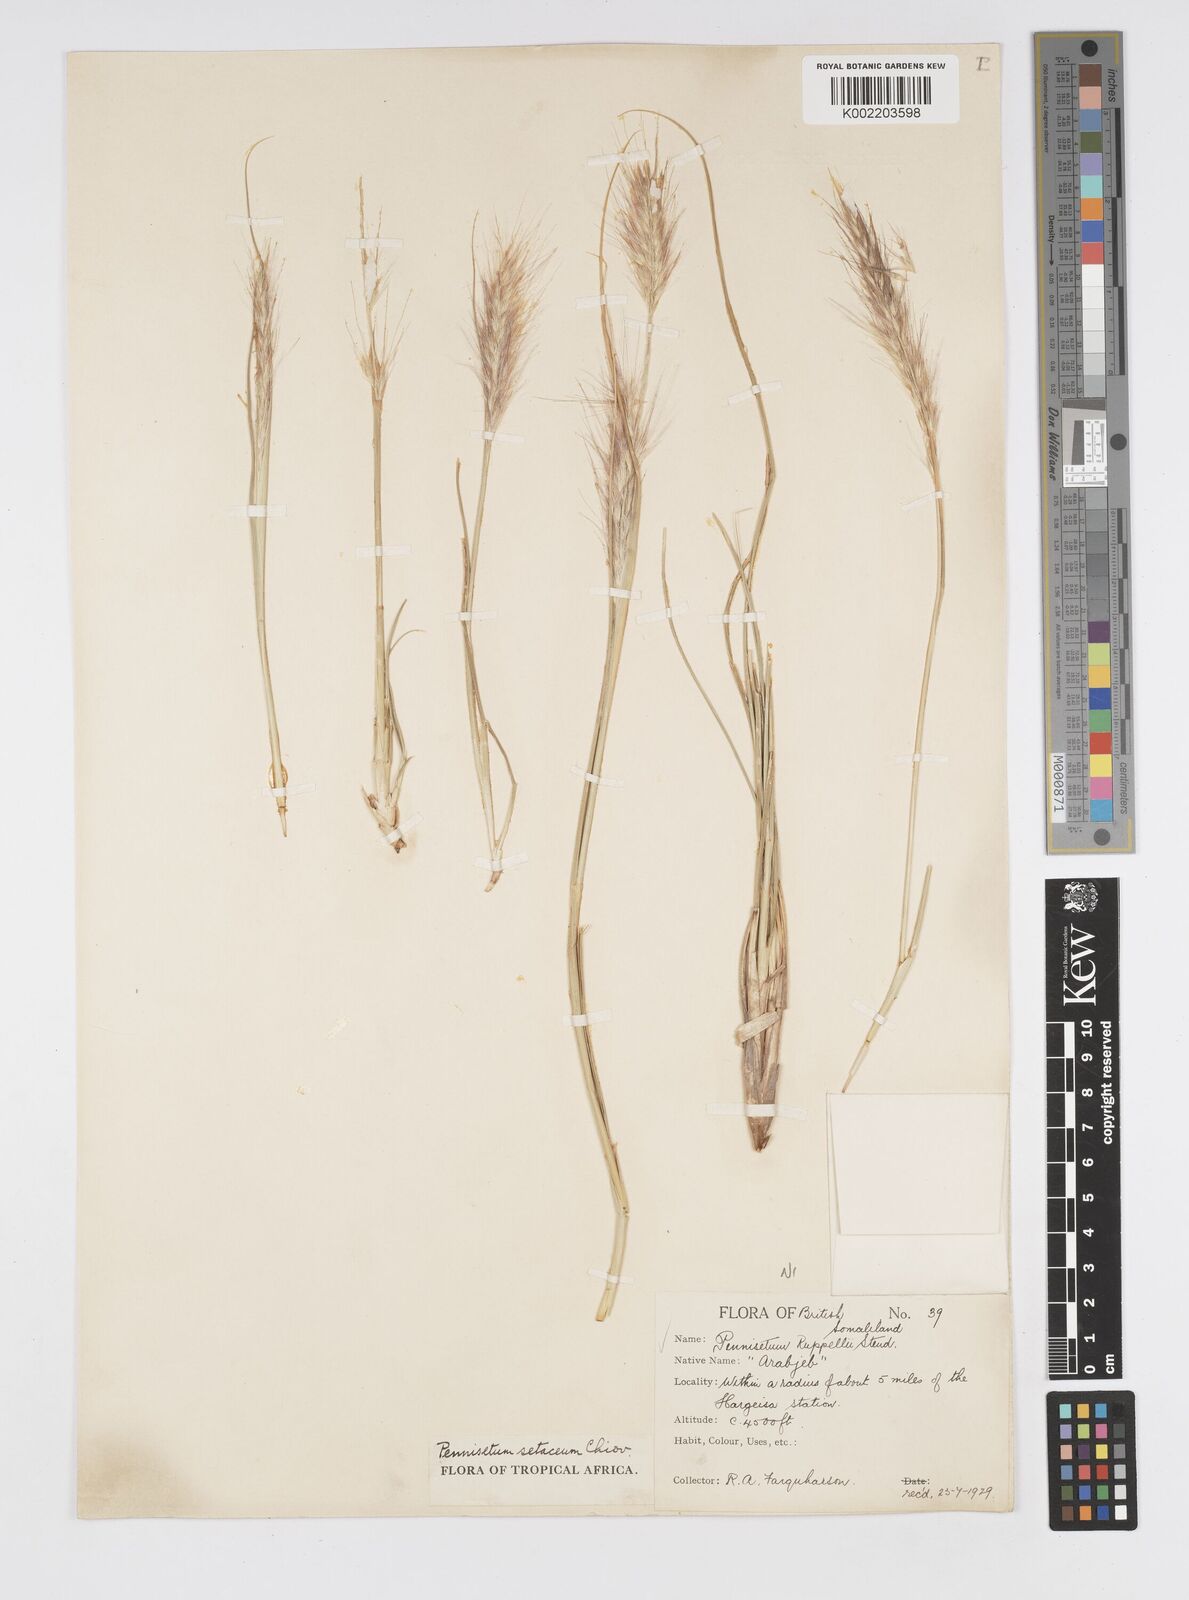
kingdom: Plantae
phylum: Tracheophyta
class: Liliopsida
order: Poales
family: Poaceae
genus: Cenchrus
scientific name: Cenchrus setaceus
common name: Crimson fountaingrass
